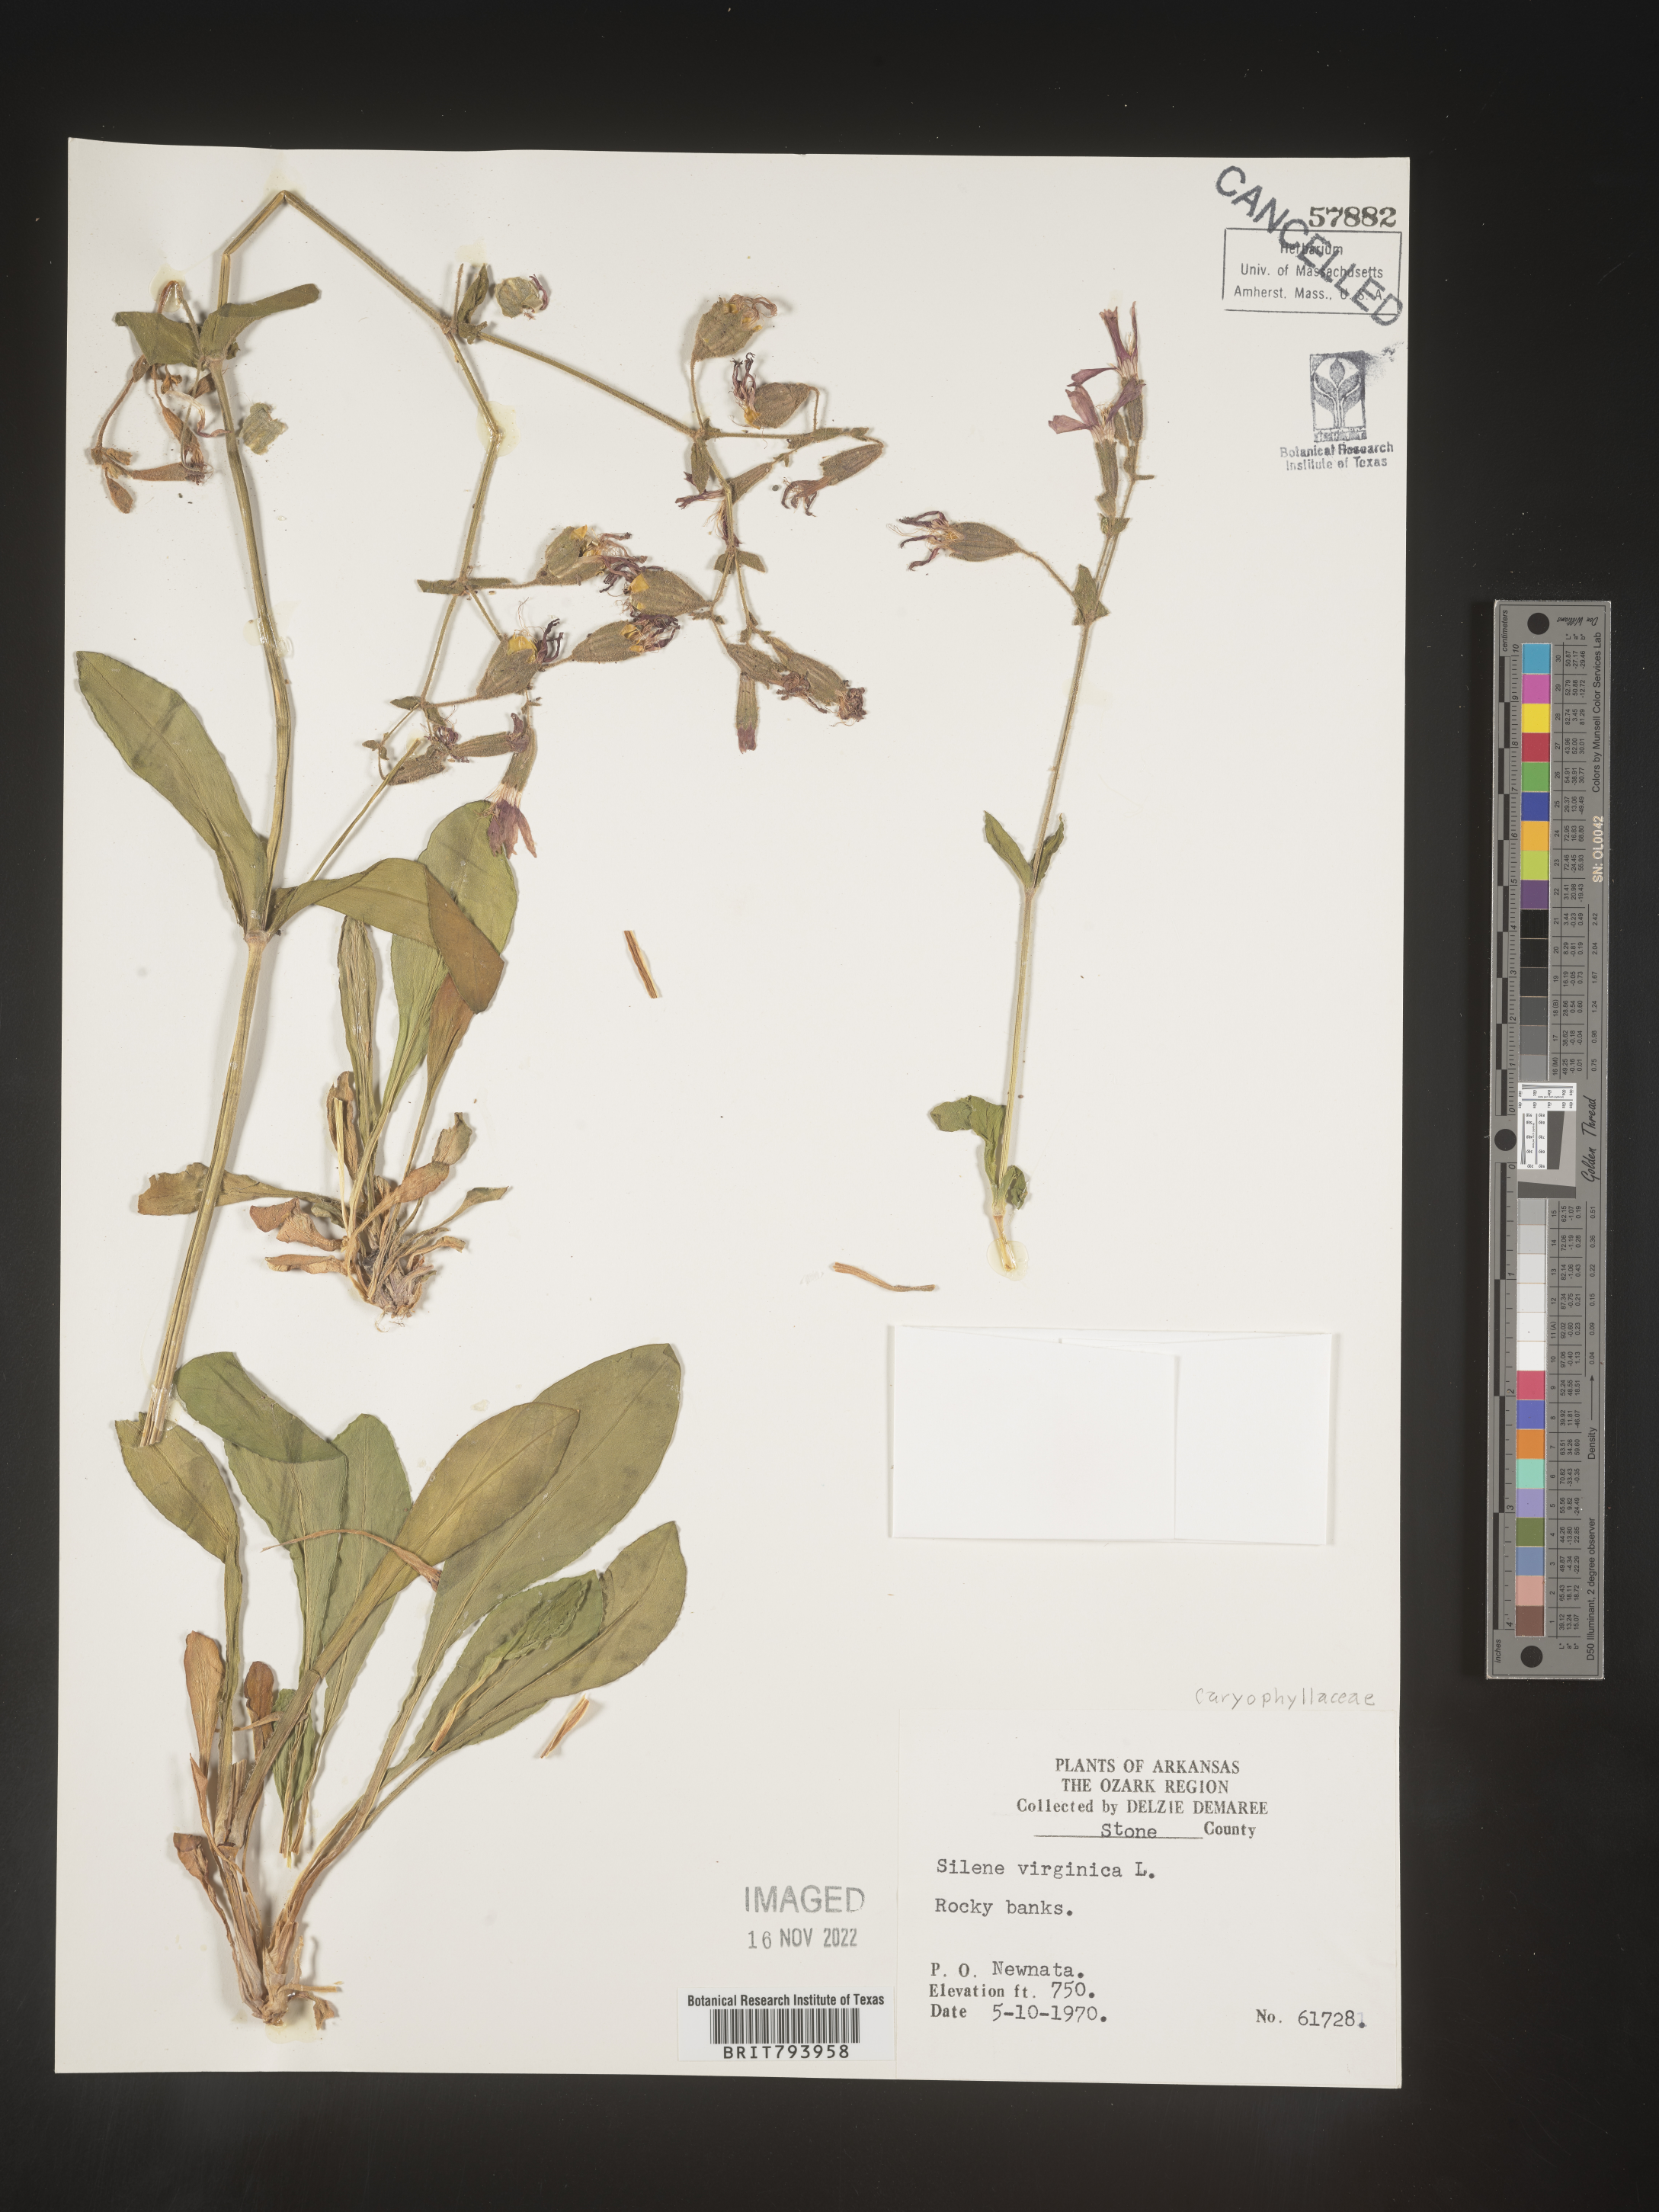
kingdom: Plantae
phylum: Tracheophyta
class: Magnoliopsida
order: Caryophyllales
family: Caryophyllaceae
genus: Silene
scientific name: Silene virginica
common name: Fire-pink
